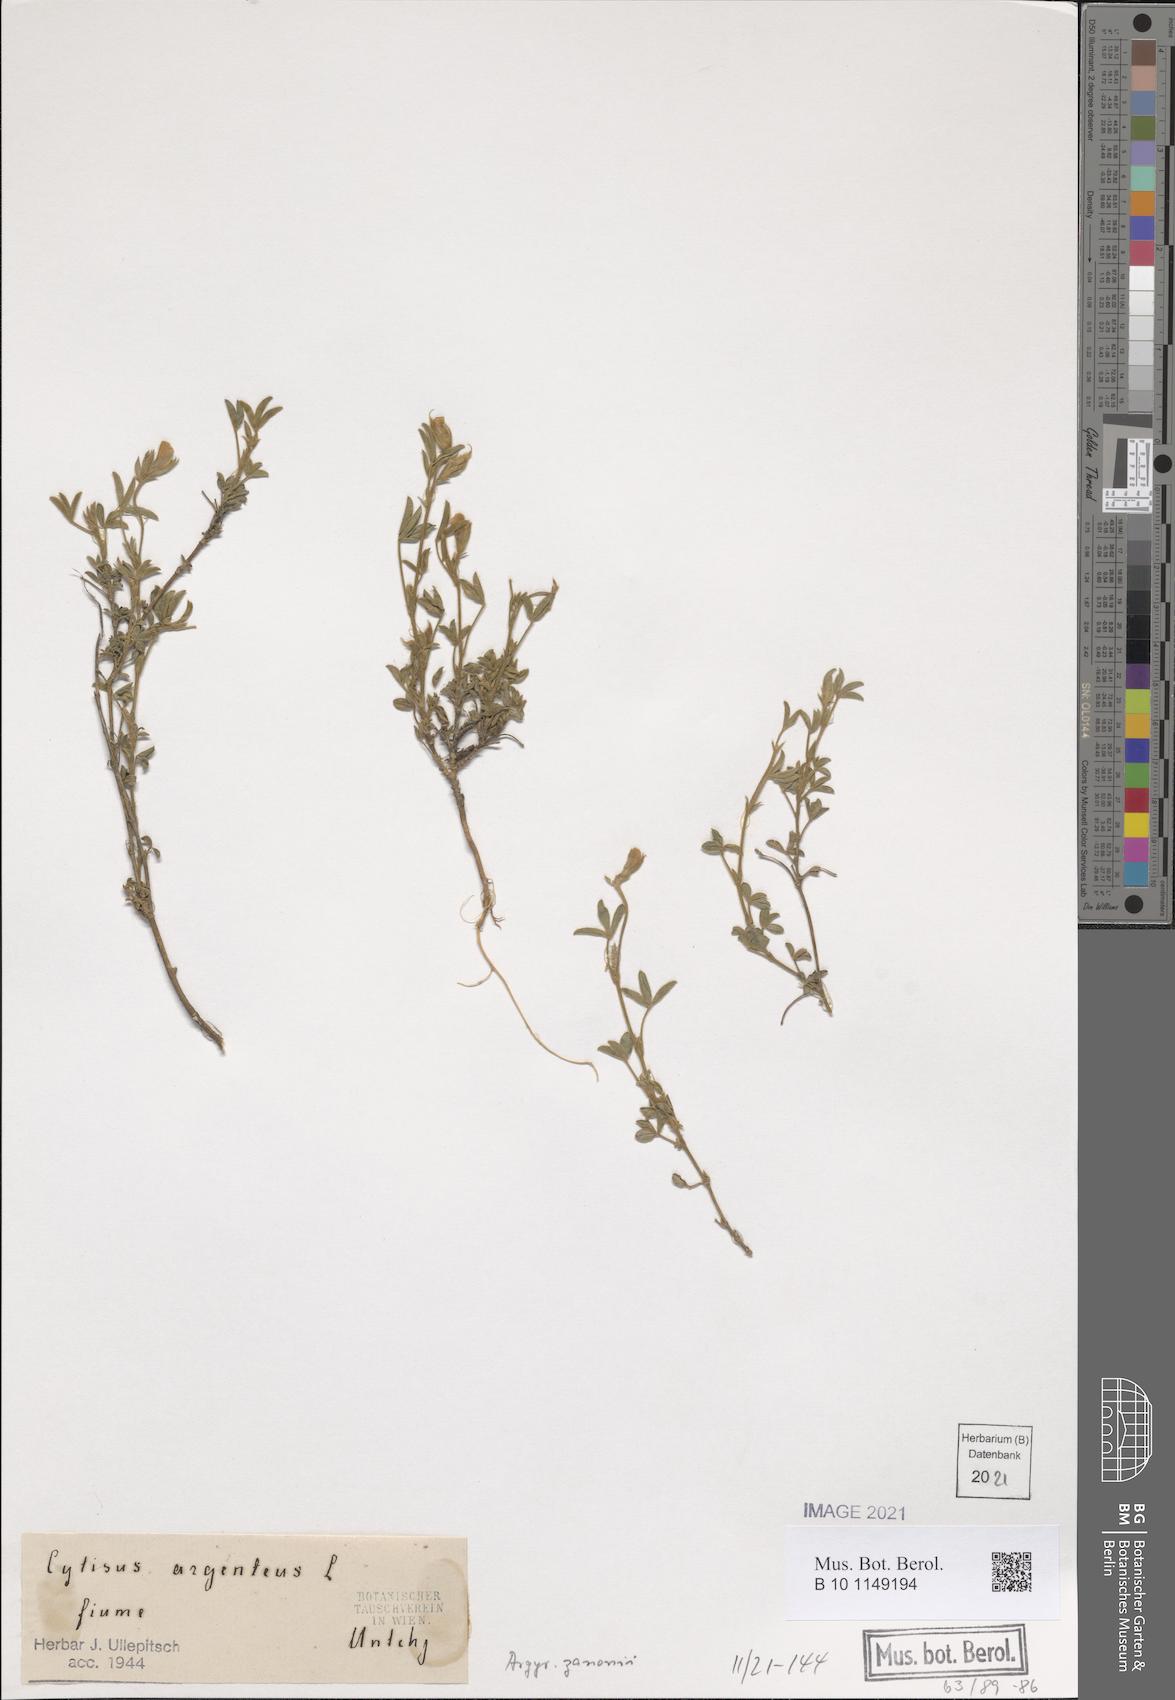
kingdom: Plantae
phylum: Tracheophyta
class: Magnoliopsida
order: Fabales
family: Fabaceae
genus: Argyrolobium
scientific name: Argyrolobium zanonii
